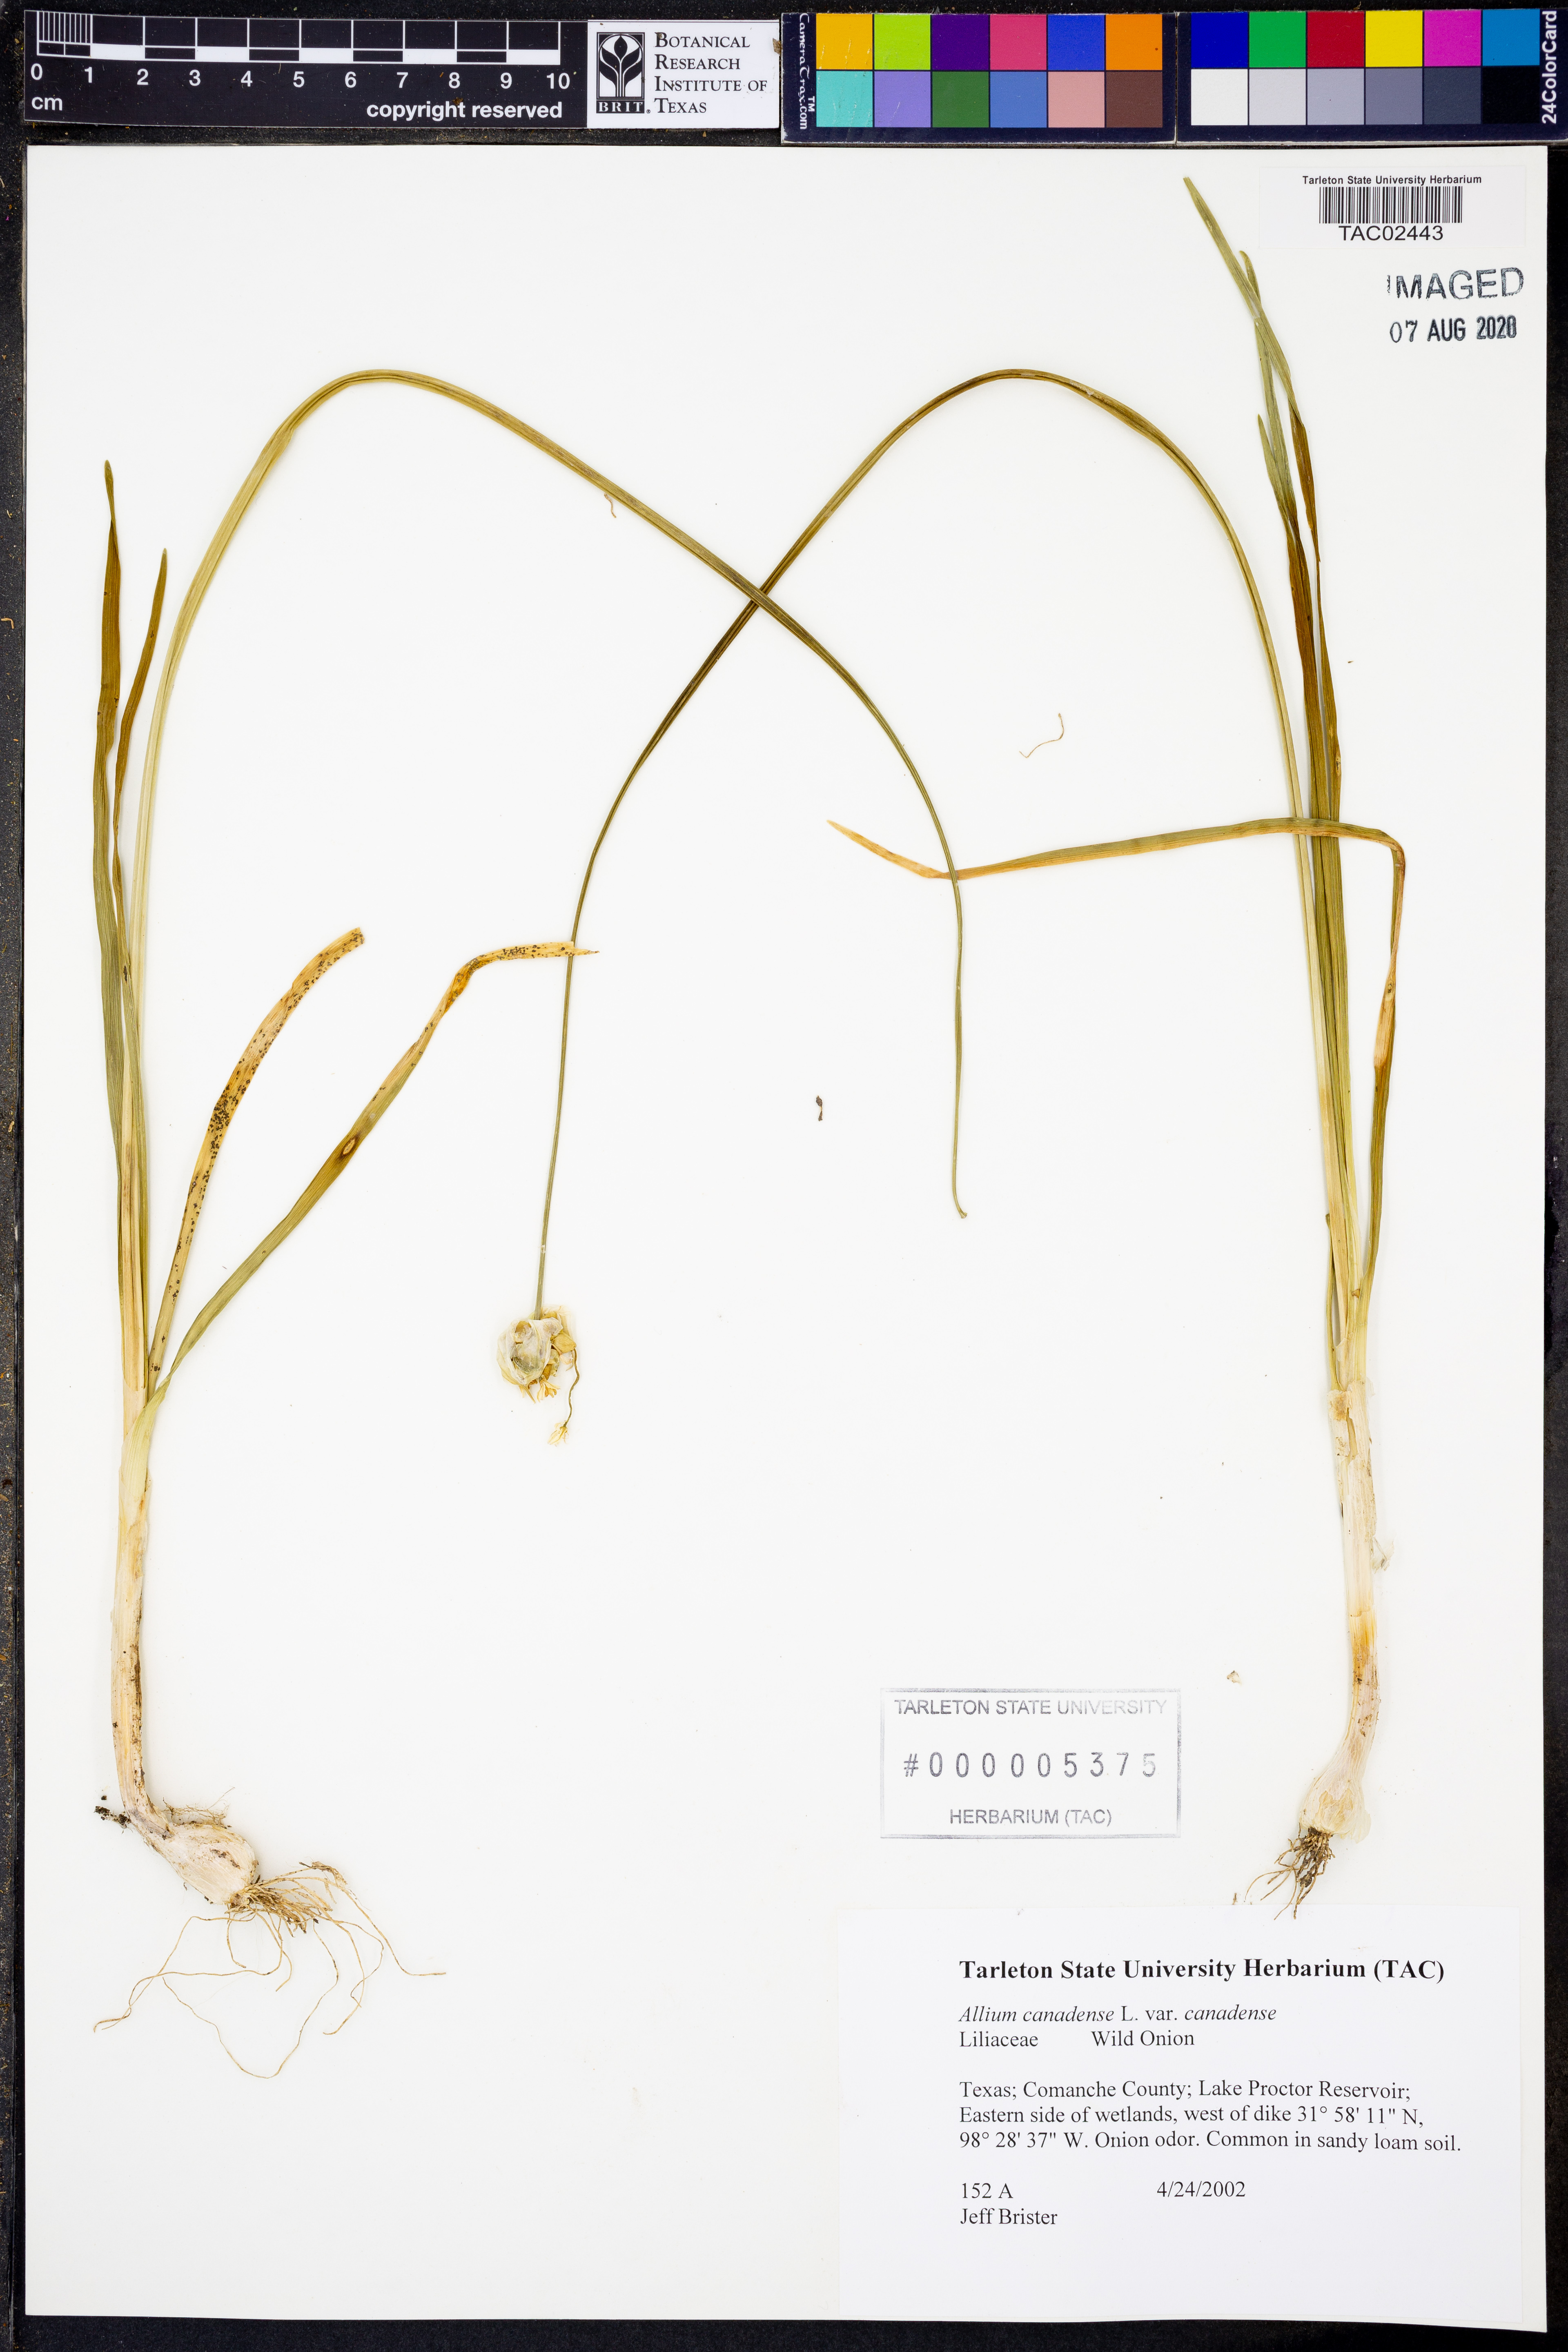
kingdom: Plantae
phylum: Tracheophyta
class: Liliopsida
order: Asparagales
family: Amaryllidaceae
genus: Allium
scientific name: Allium canadense
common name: Meadow garlic
